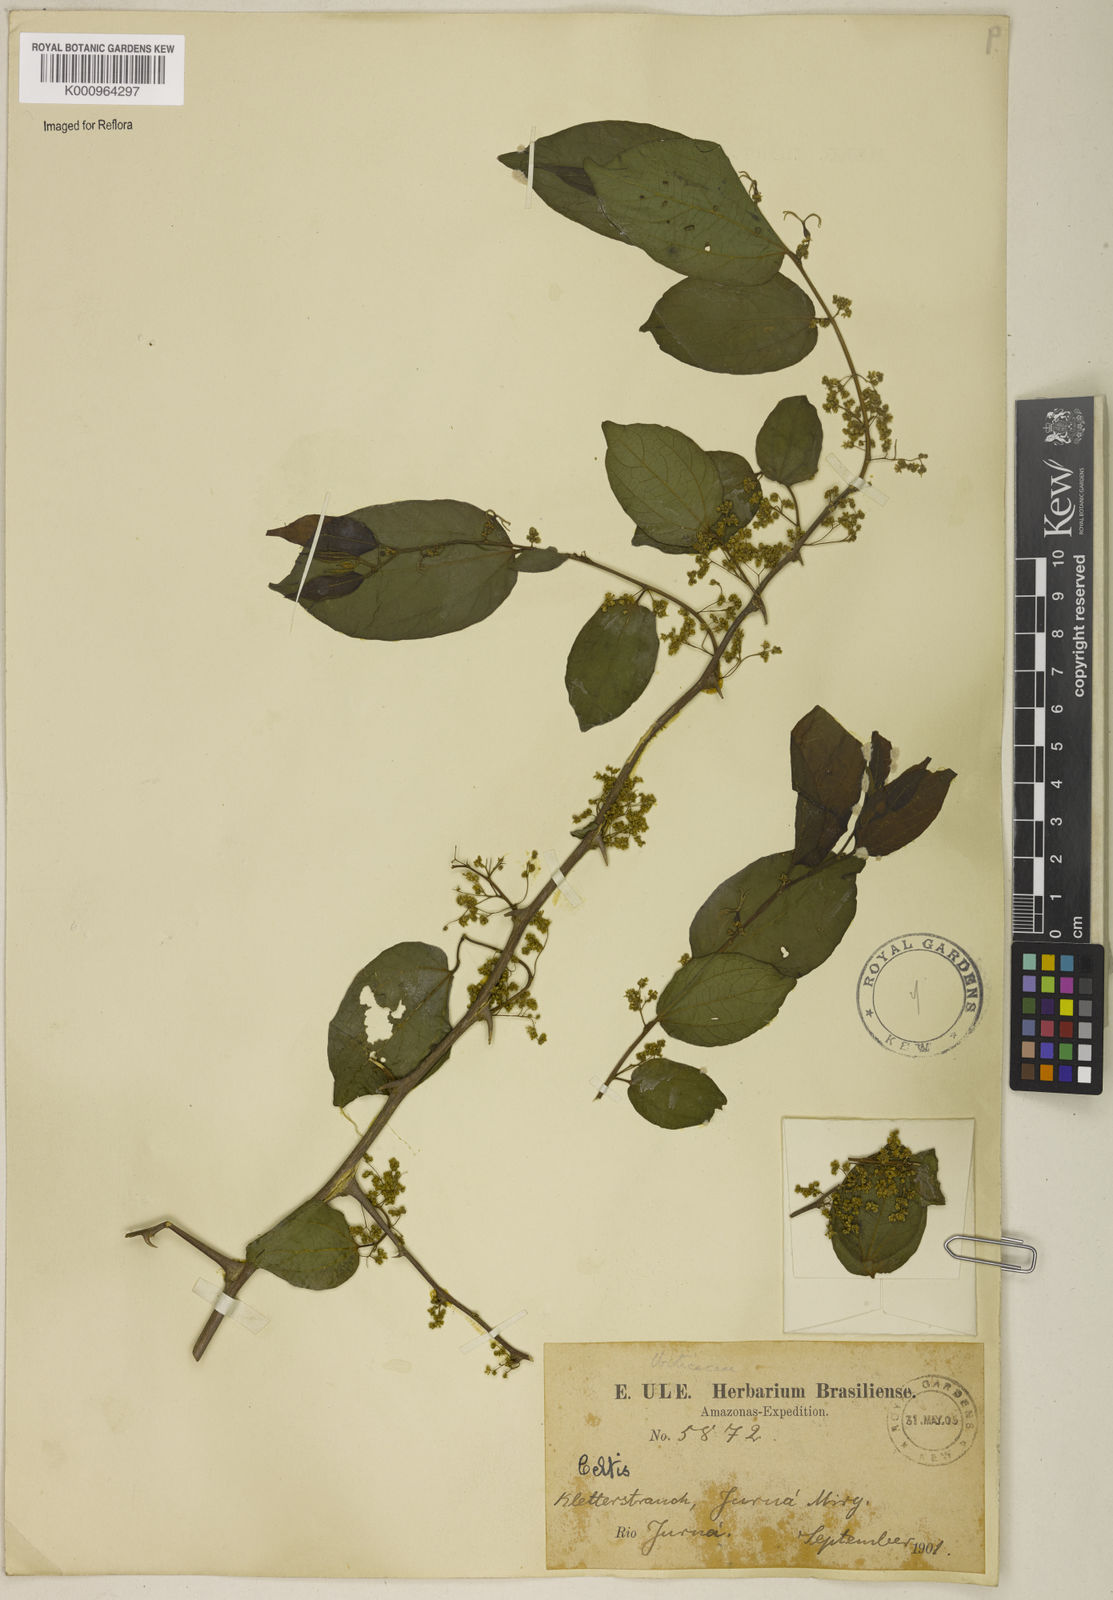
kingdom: Plantae
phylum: Tracheophyta
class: Magnoliopsida
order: Rosales
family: Cannabaceae
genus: Celtis
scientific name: Celtis
